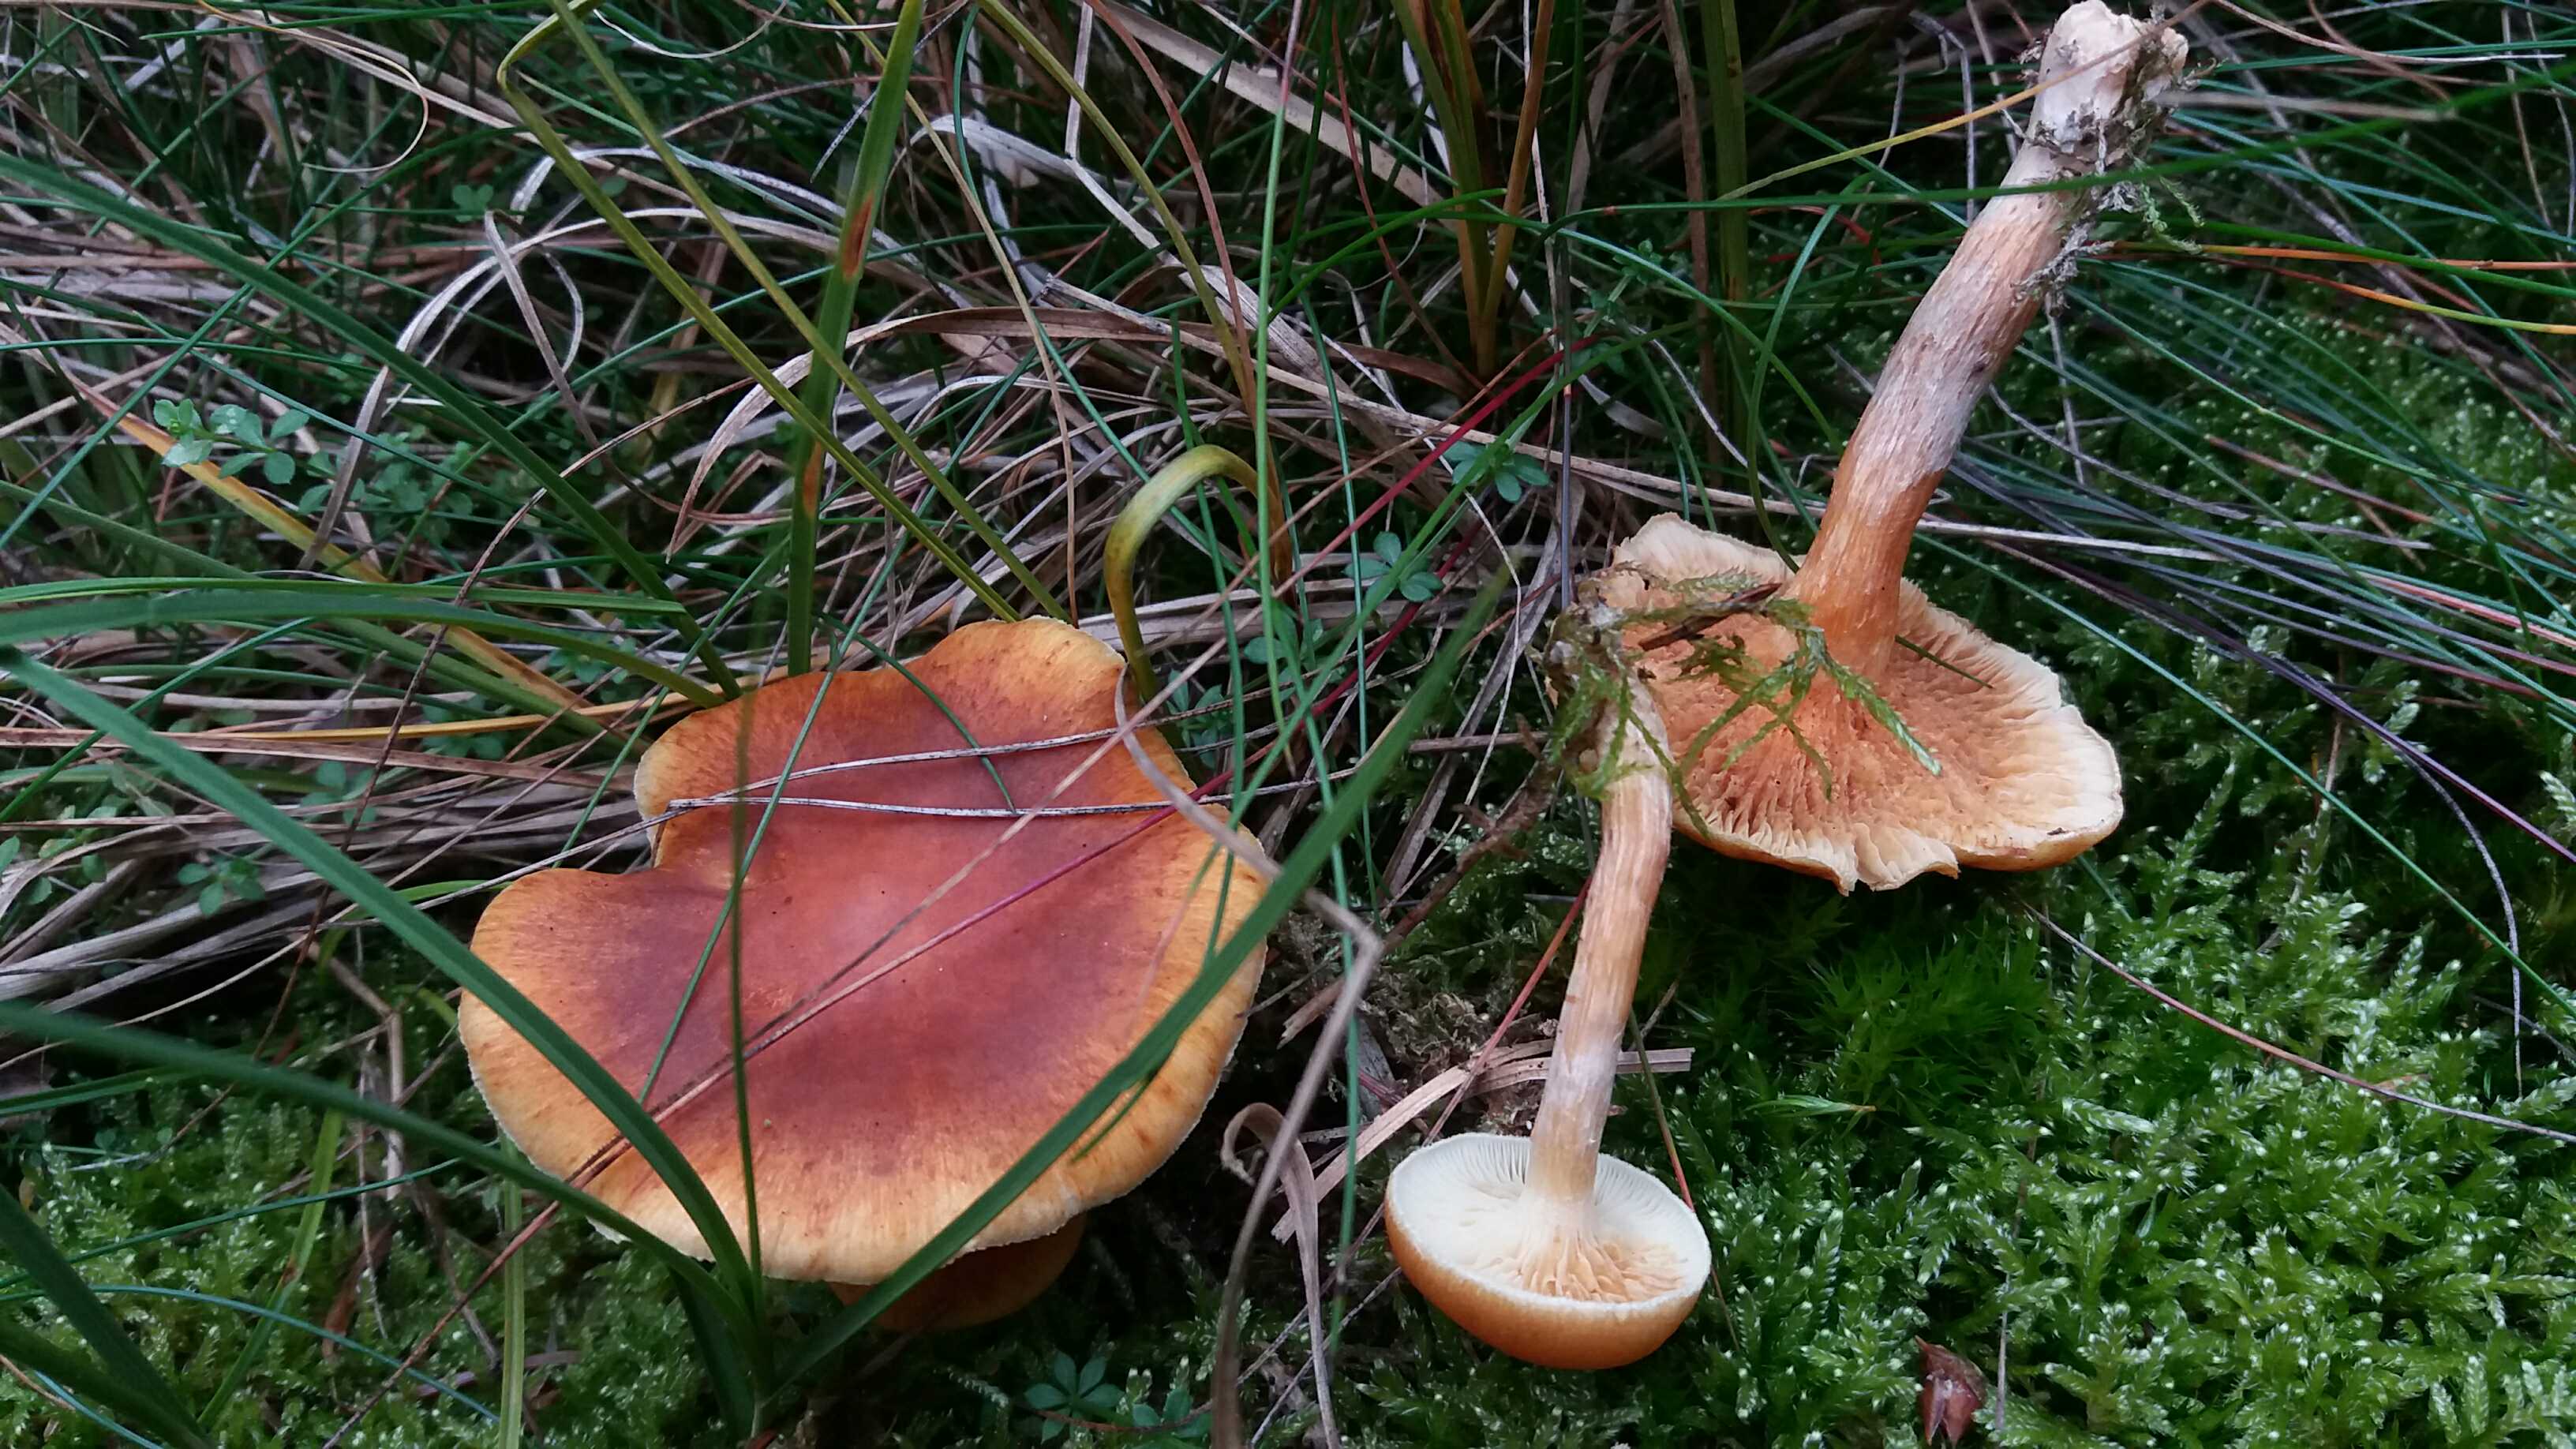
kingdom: Fungi
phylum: Basidiomycota
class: Agaricomycetes
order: Agaricales
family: Hymenogastraceae
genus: Gymnopilus
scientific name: Gymnopilus penetrans
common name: plettet flammehat
